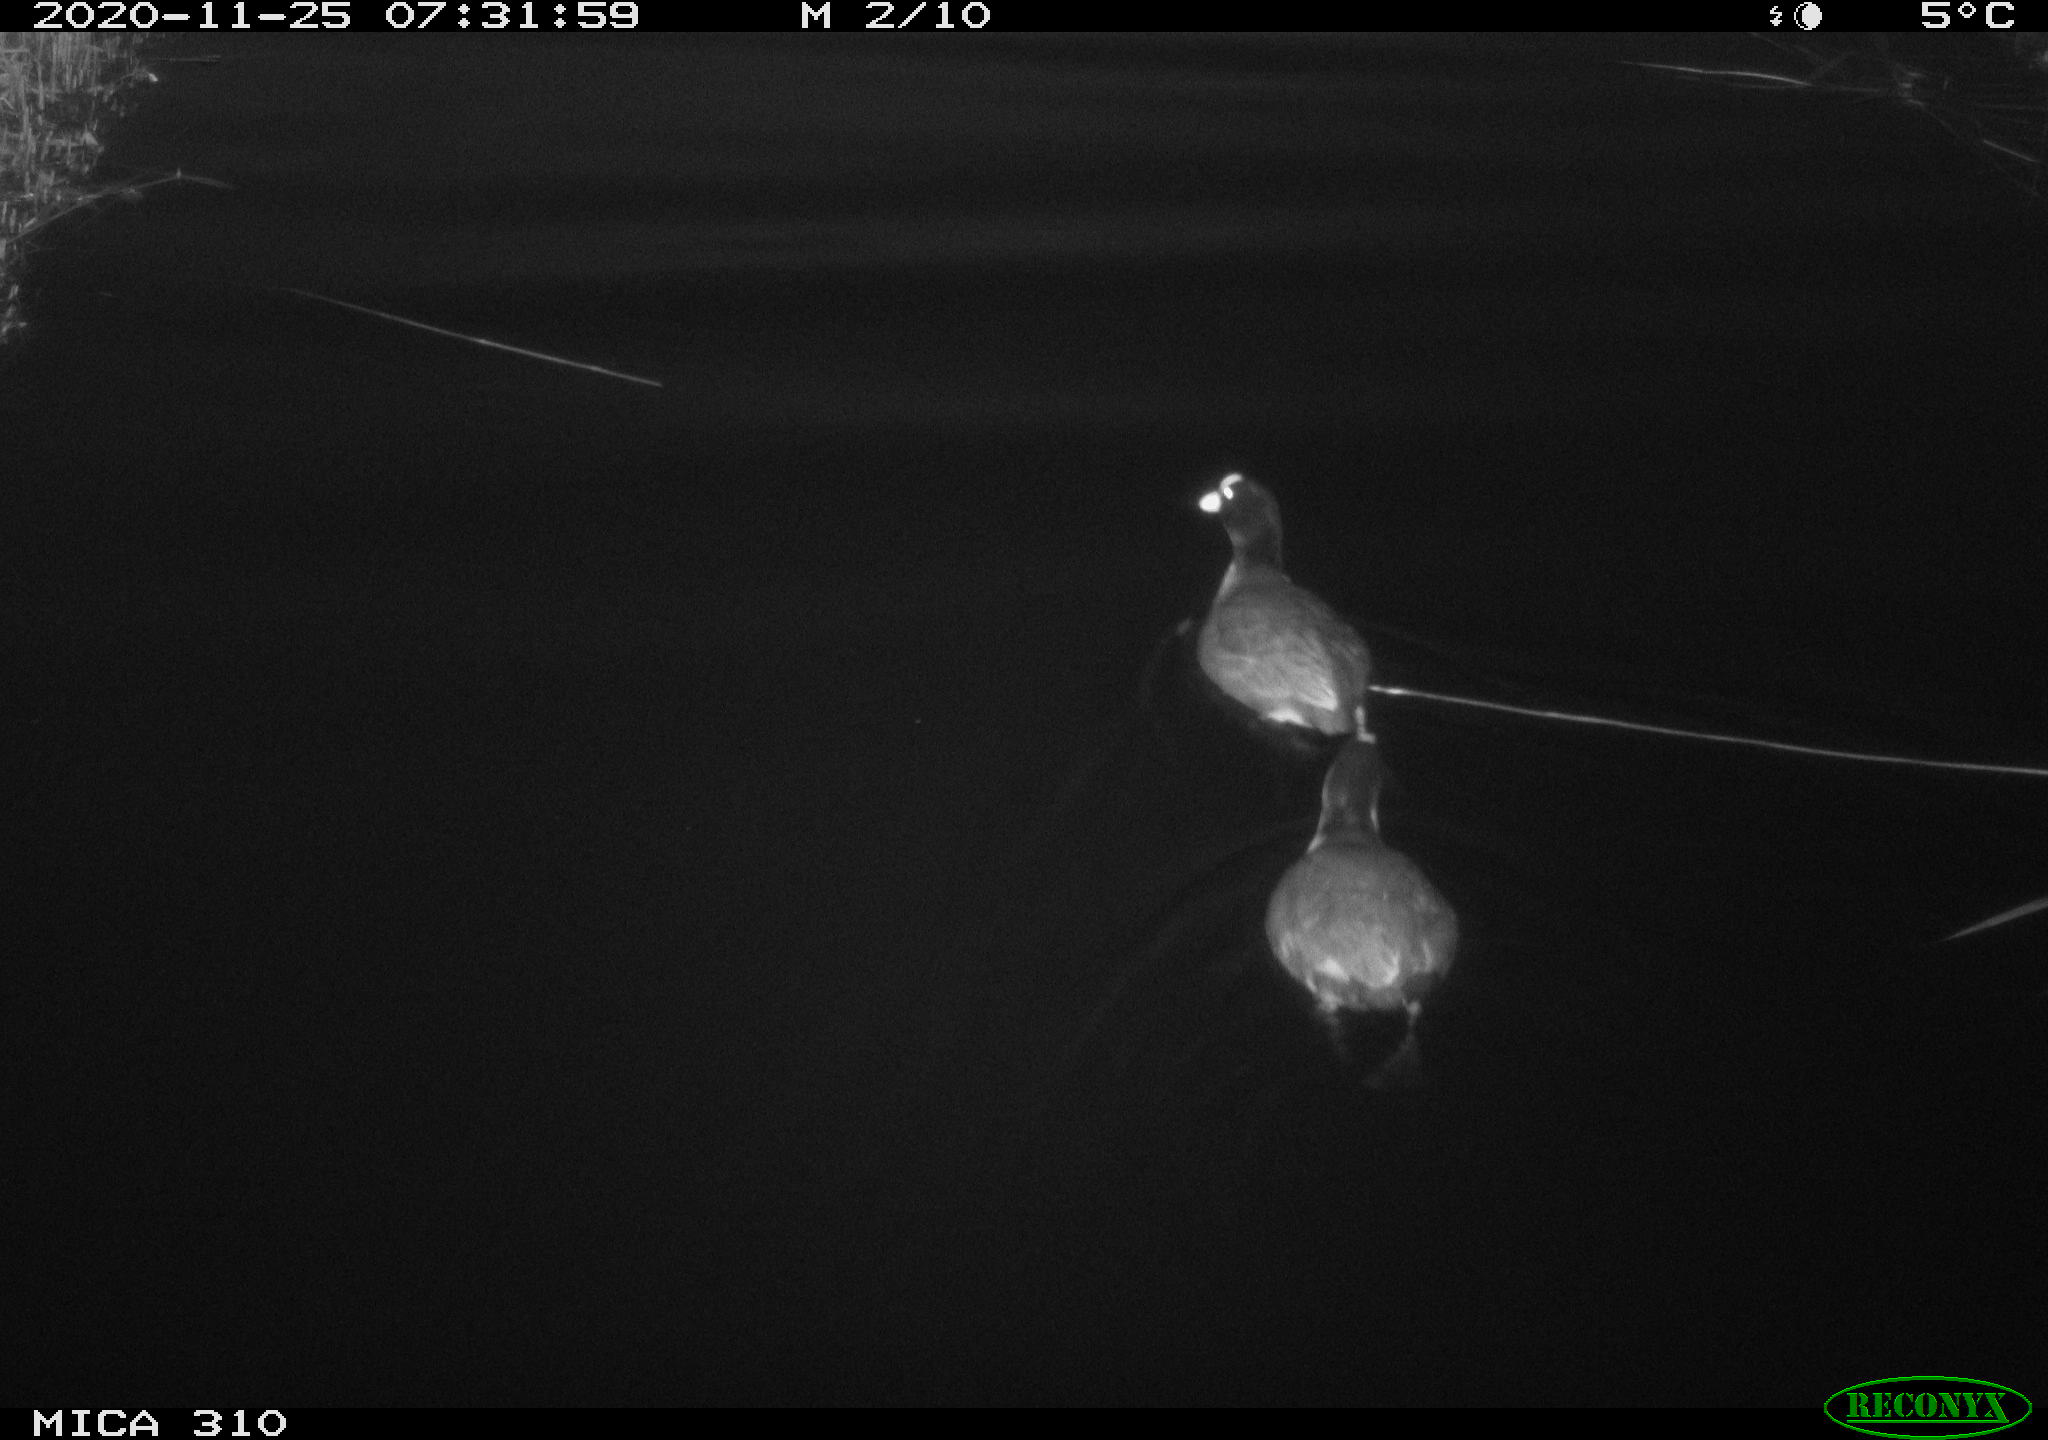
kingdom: Animalia
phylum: Chordata
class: Aves
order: Gruiformes
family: Rallidae
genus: Fulica
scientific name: Fulica atra
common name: Eurasian coot
